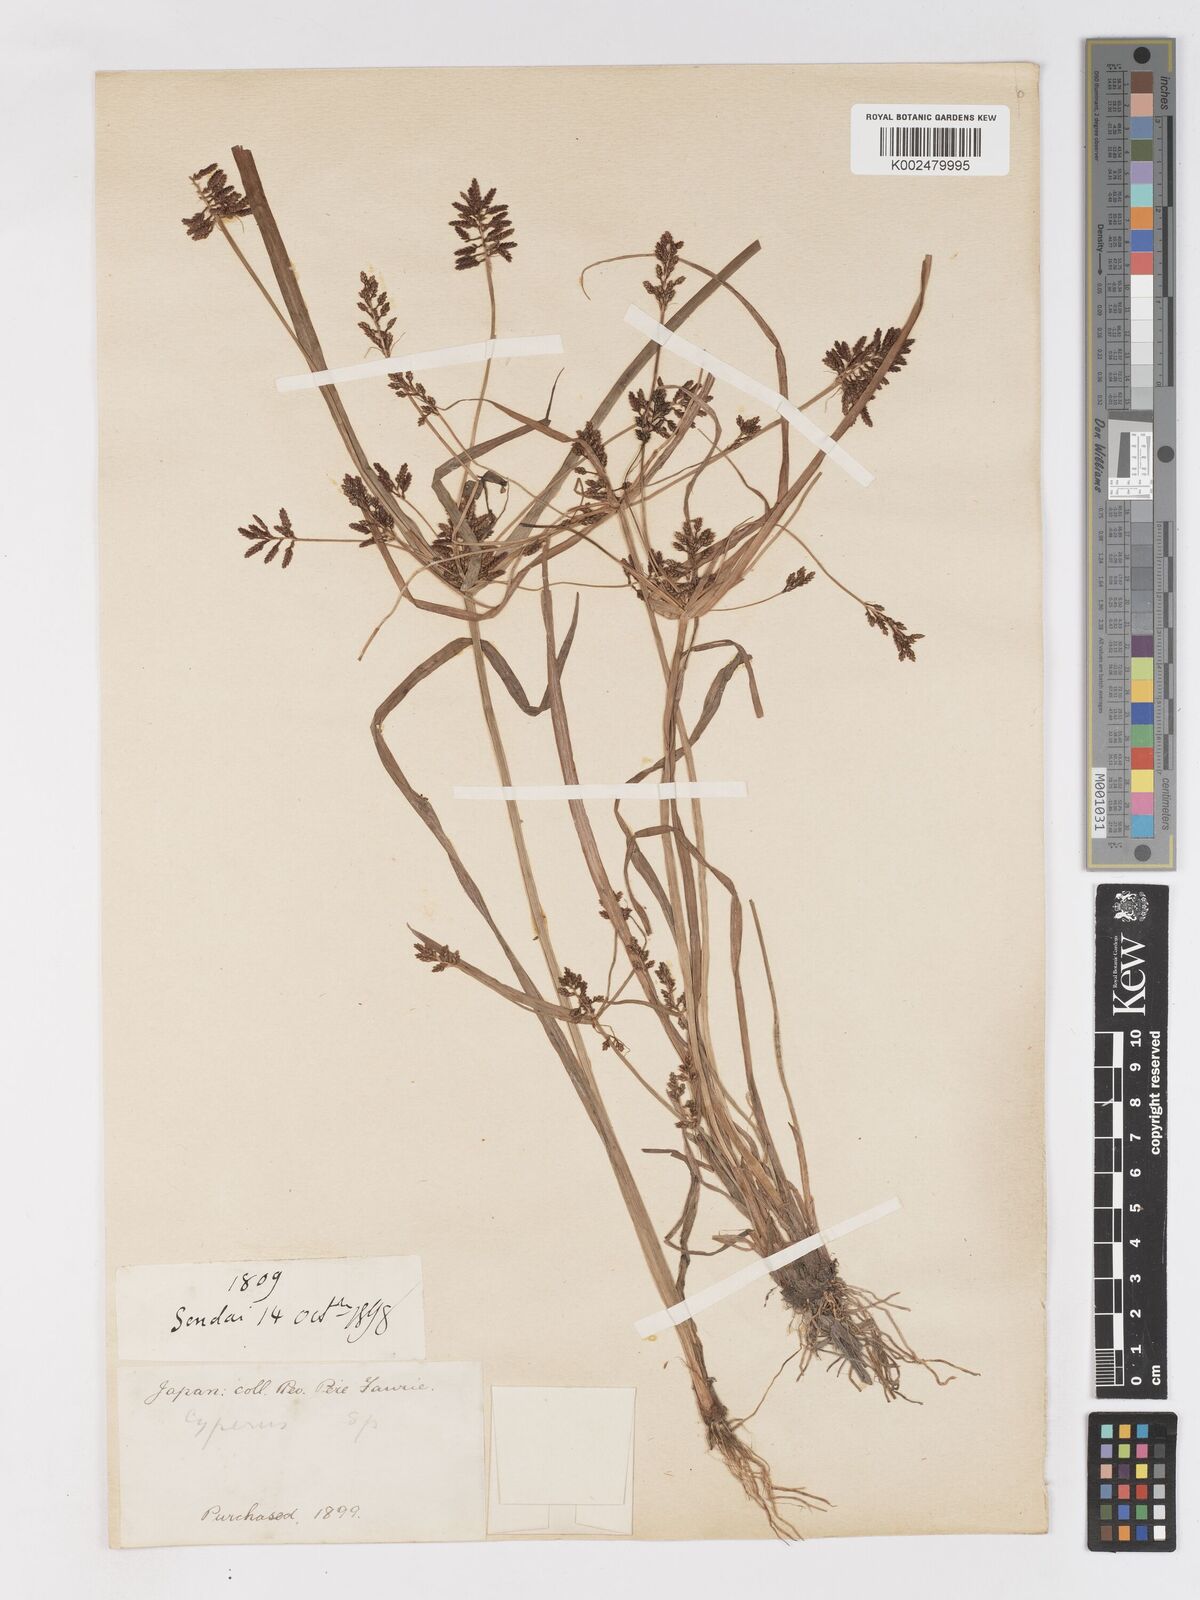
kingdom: Plantae
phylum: Tracheophyta
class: Liliopsida
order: Poales
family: Cyperaceae
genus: Cyperus
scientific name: Cyperus orthostachyus
